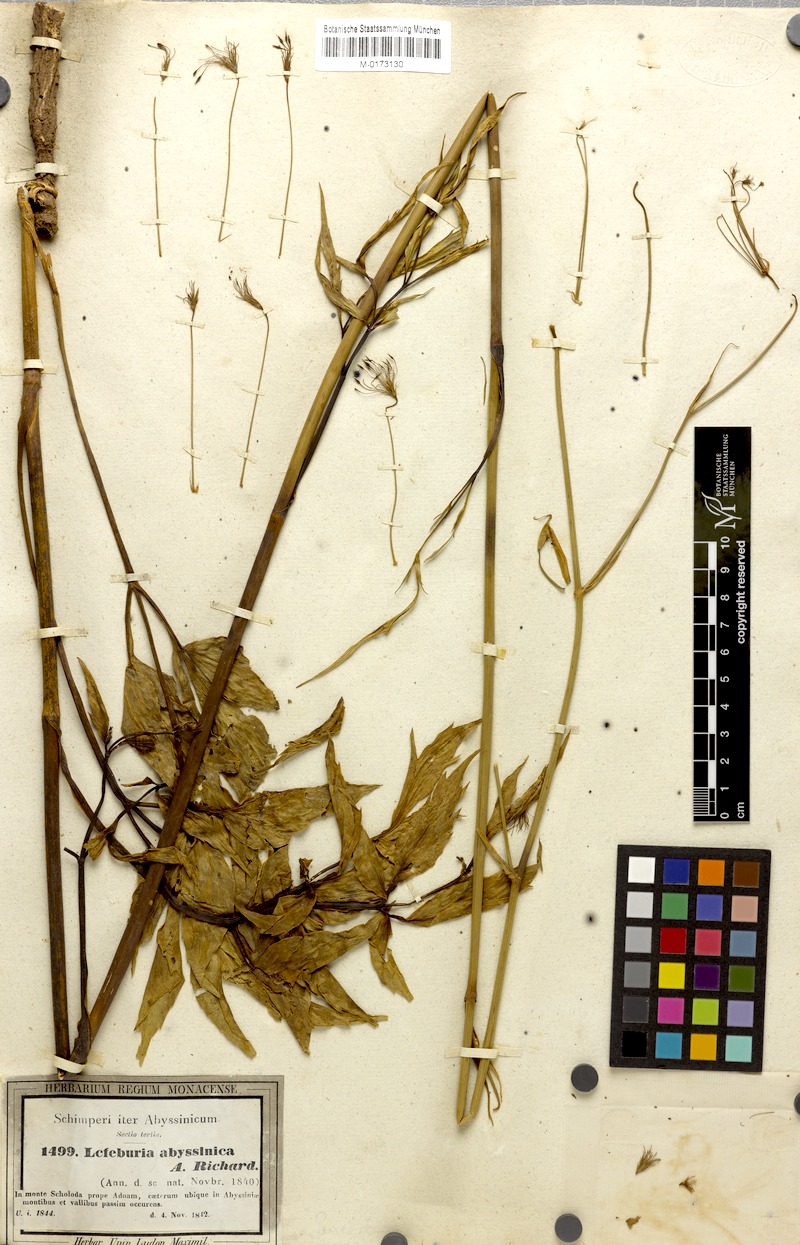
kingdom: Plantae
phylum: Tracheophyta
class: Magnoliopsida
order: Apiales
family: Apiaceae
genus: Lefebvrea
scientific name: Lefebvrea abyssinica
